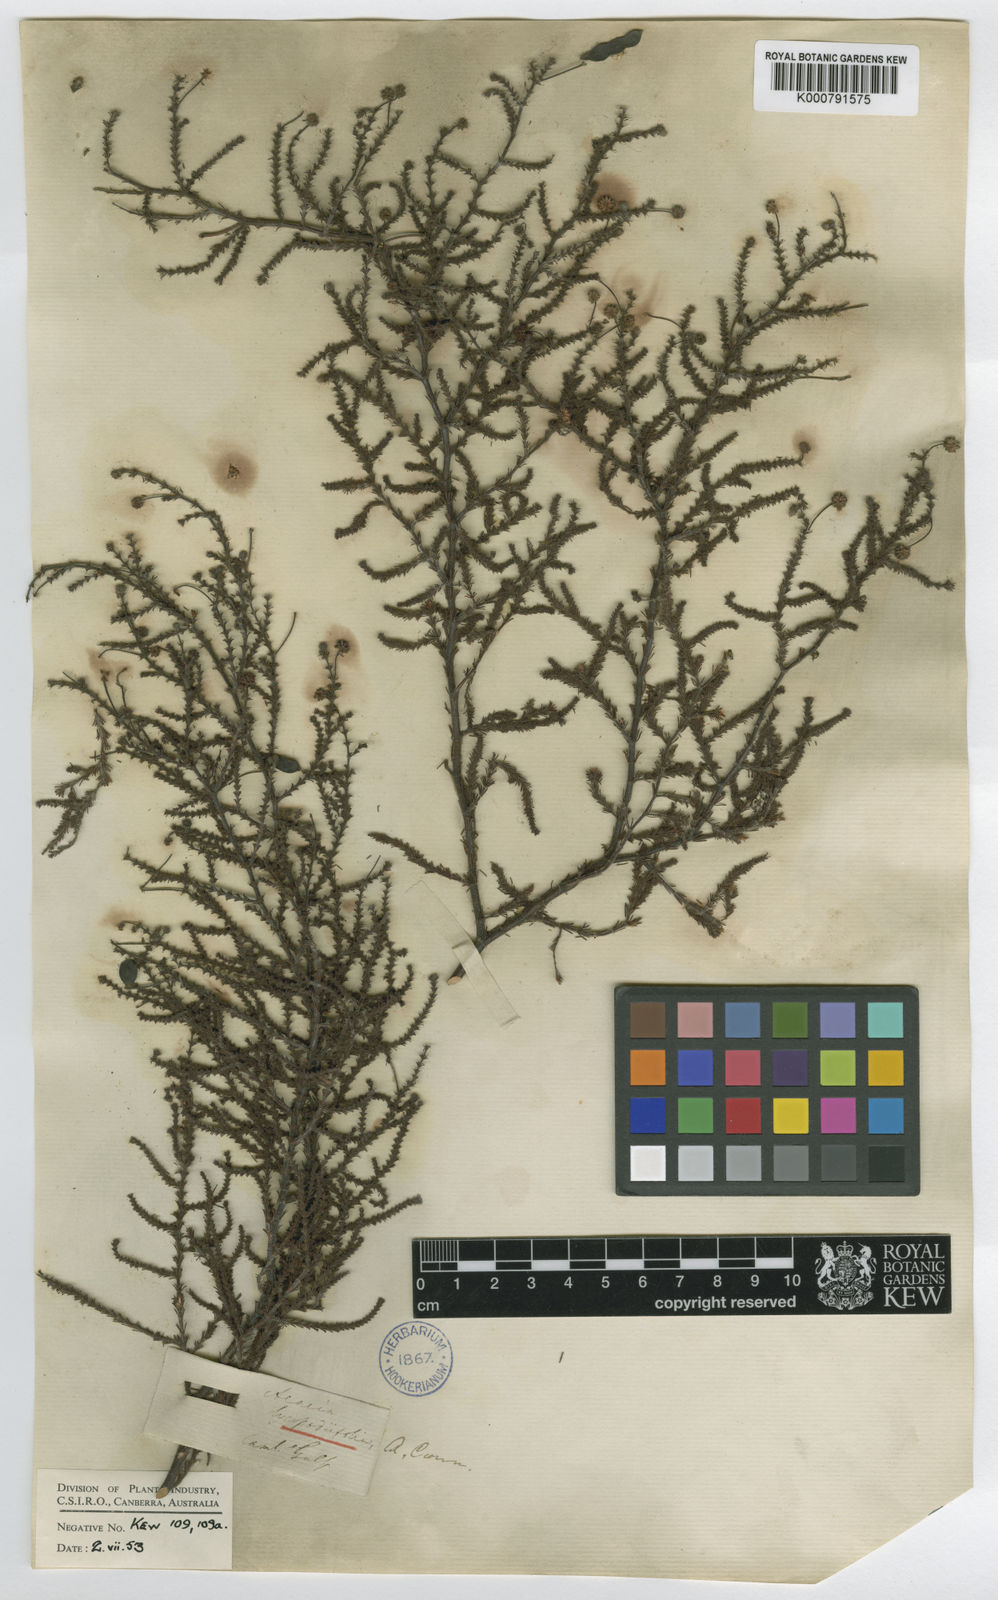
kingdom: Plantae
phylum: Tracheophyta
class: Magnoliopsida
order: Fabales
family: Fabaceae
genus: Acacia
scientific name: Acacia lycopodiifolia
